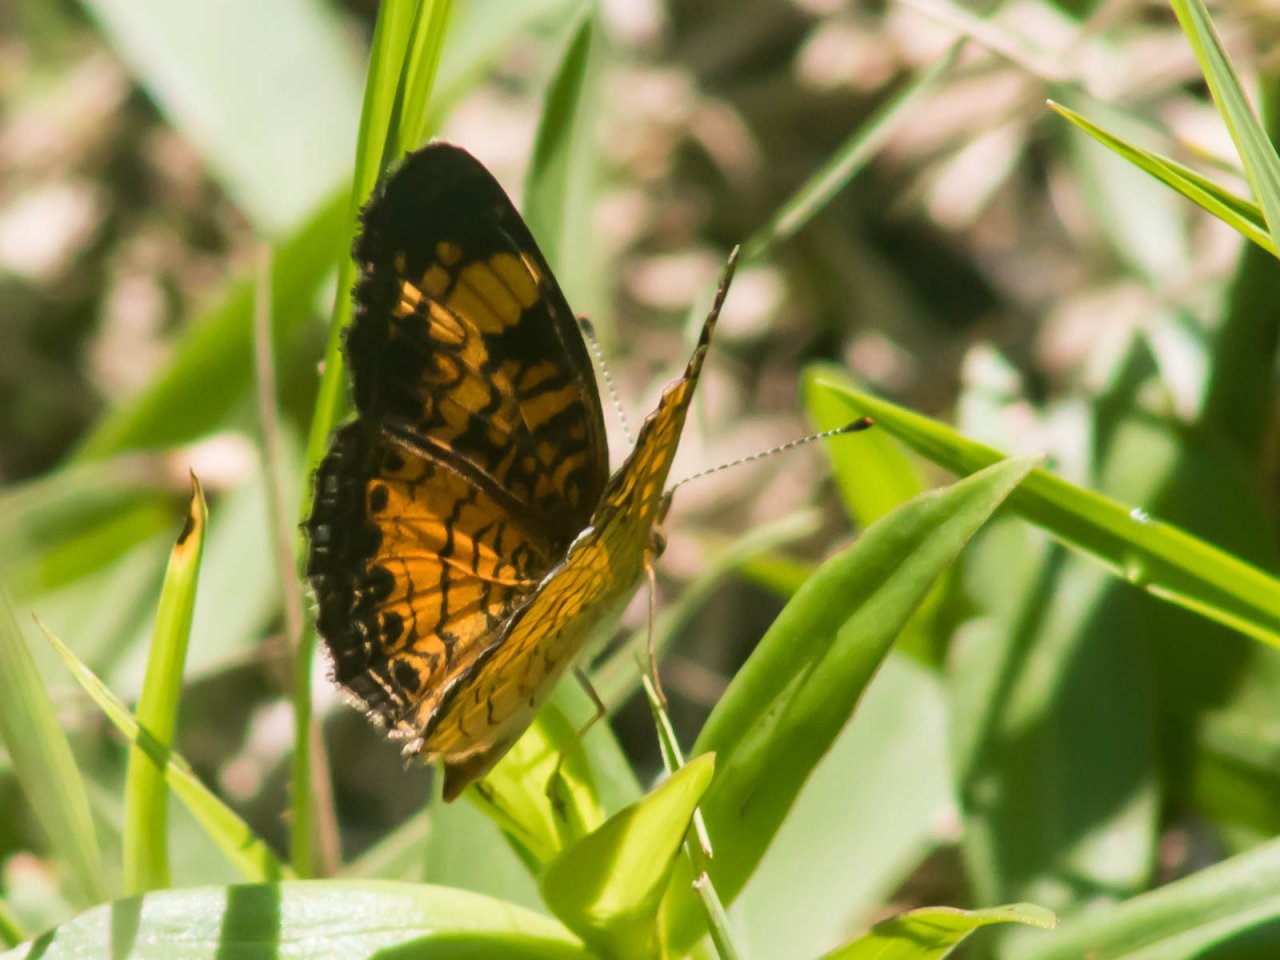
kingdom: Animalia
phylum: Arthropoda
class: Insecta
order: Lepidoptera
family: Nymphalidae
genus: Phyciodes
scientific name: Phyciodes tharos
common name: Pearl Crescent
